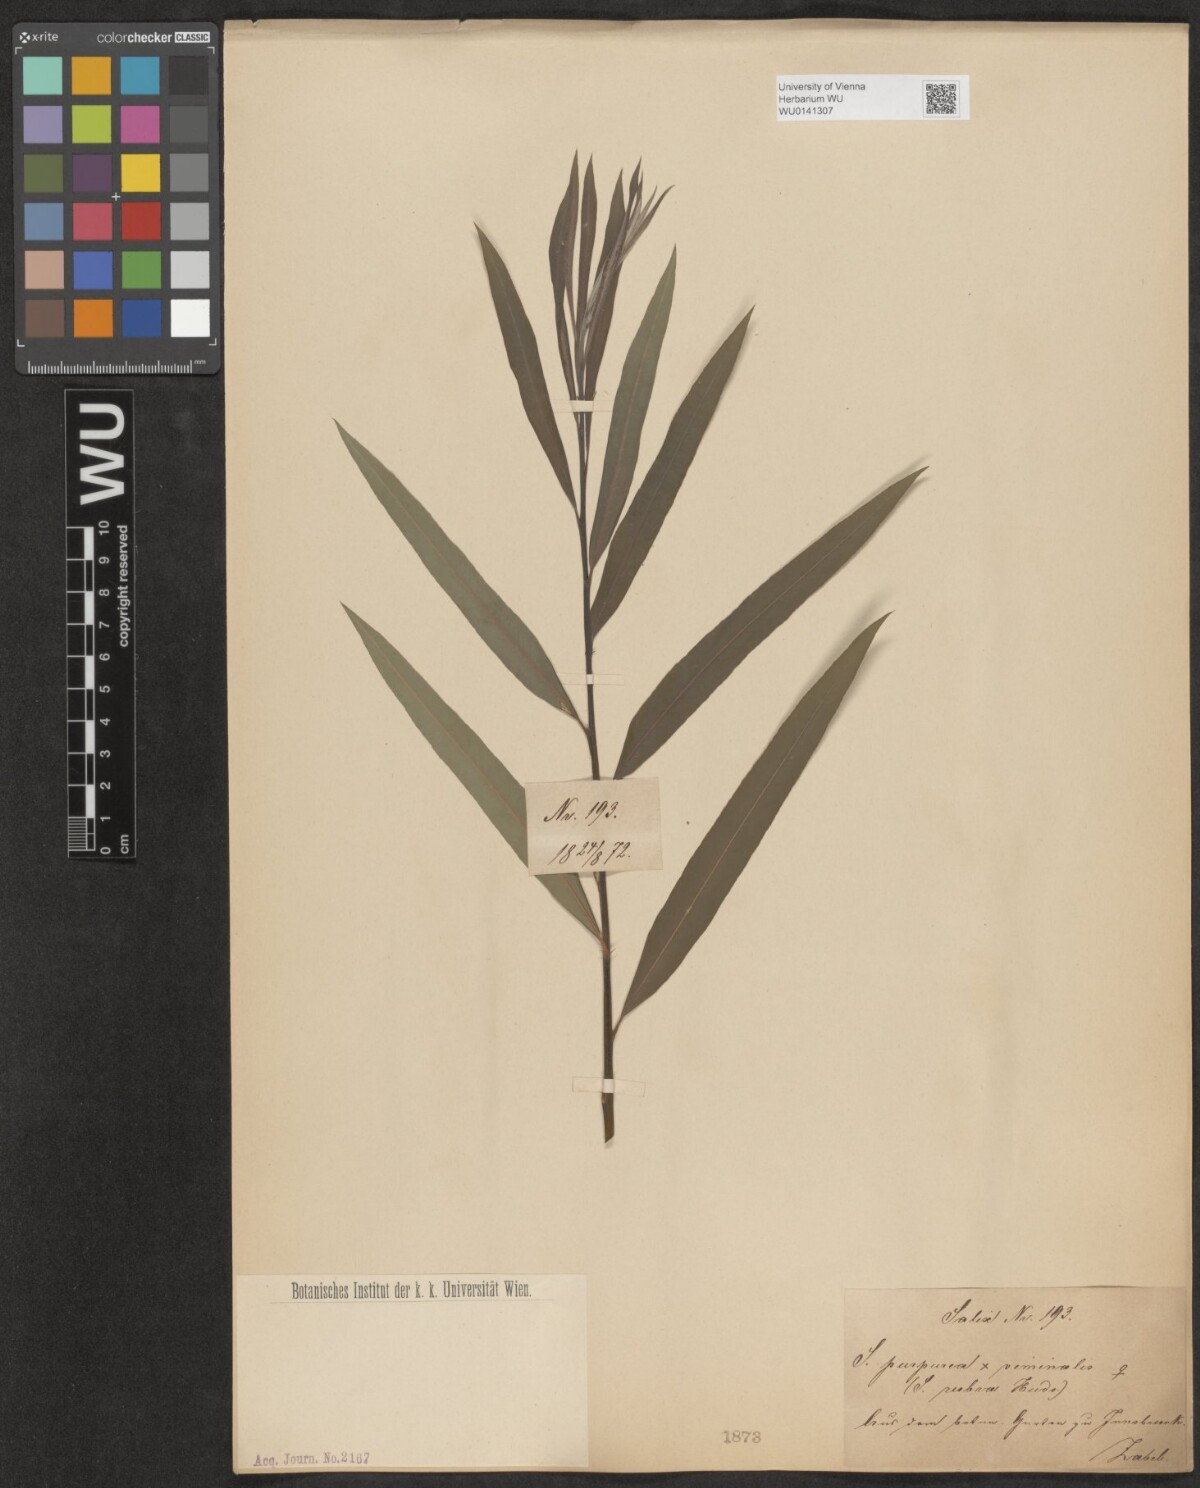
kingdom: Plantae
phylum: Tracheophyta
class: Magnoliopsida
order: Malpighiales
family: Salicaceae
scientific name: Salicaceae
